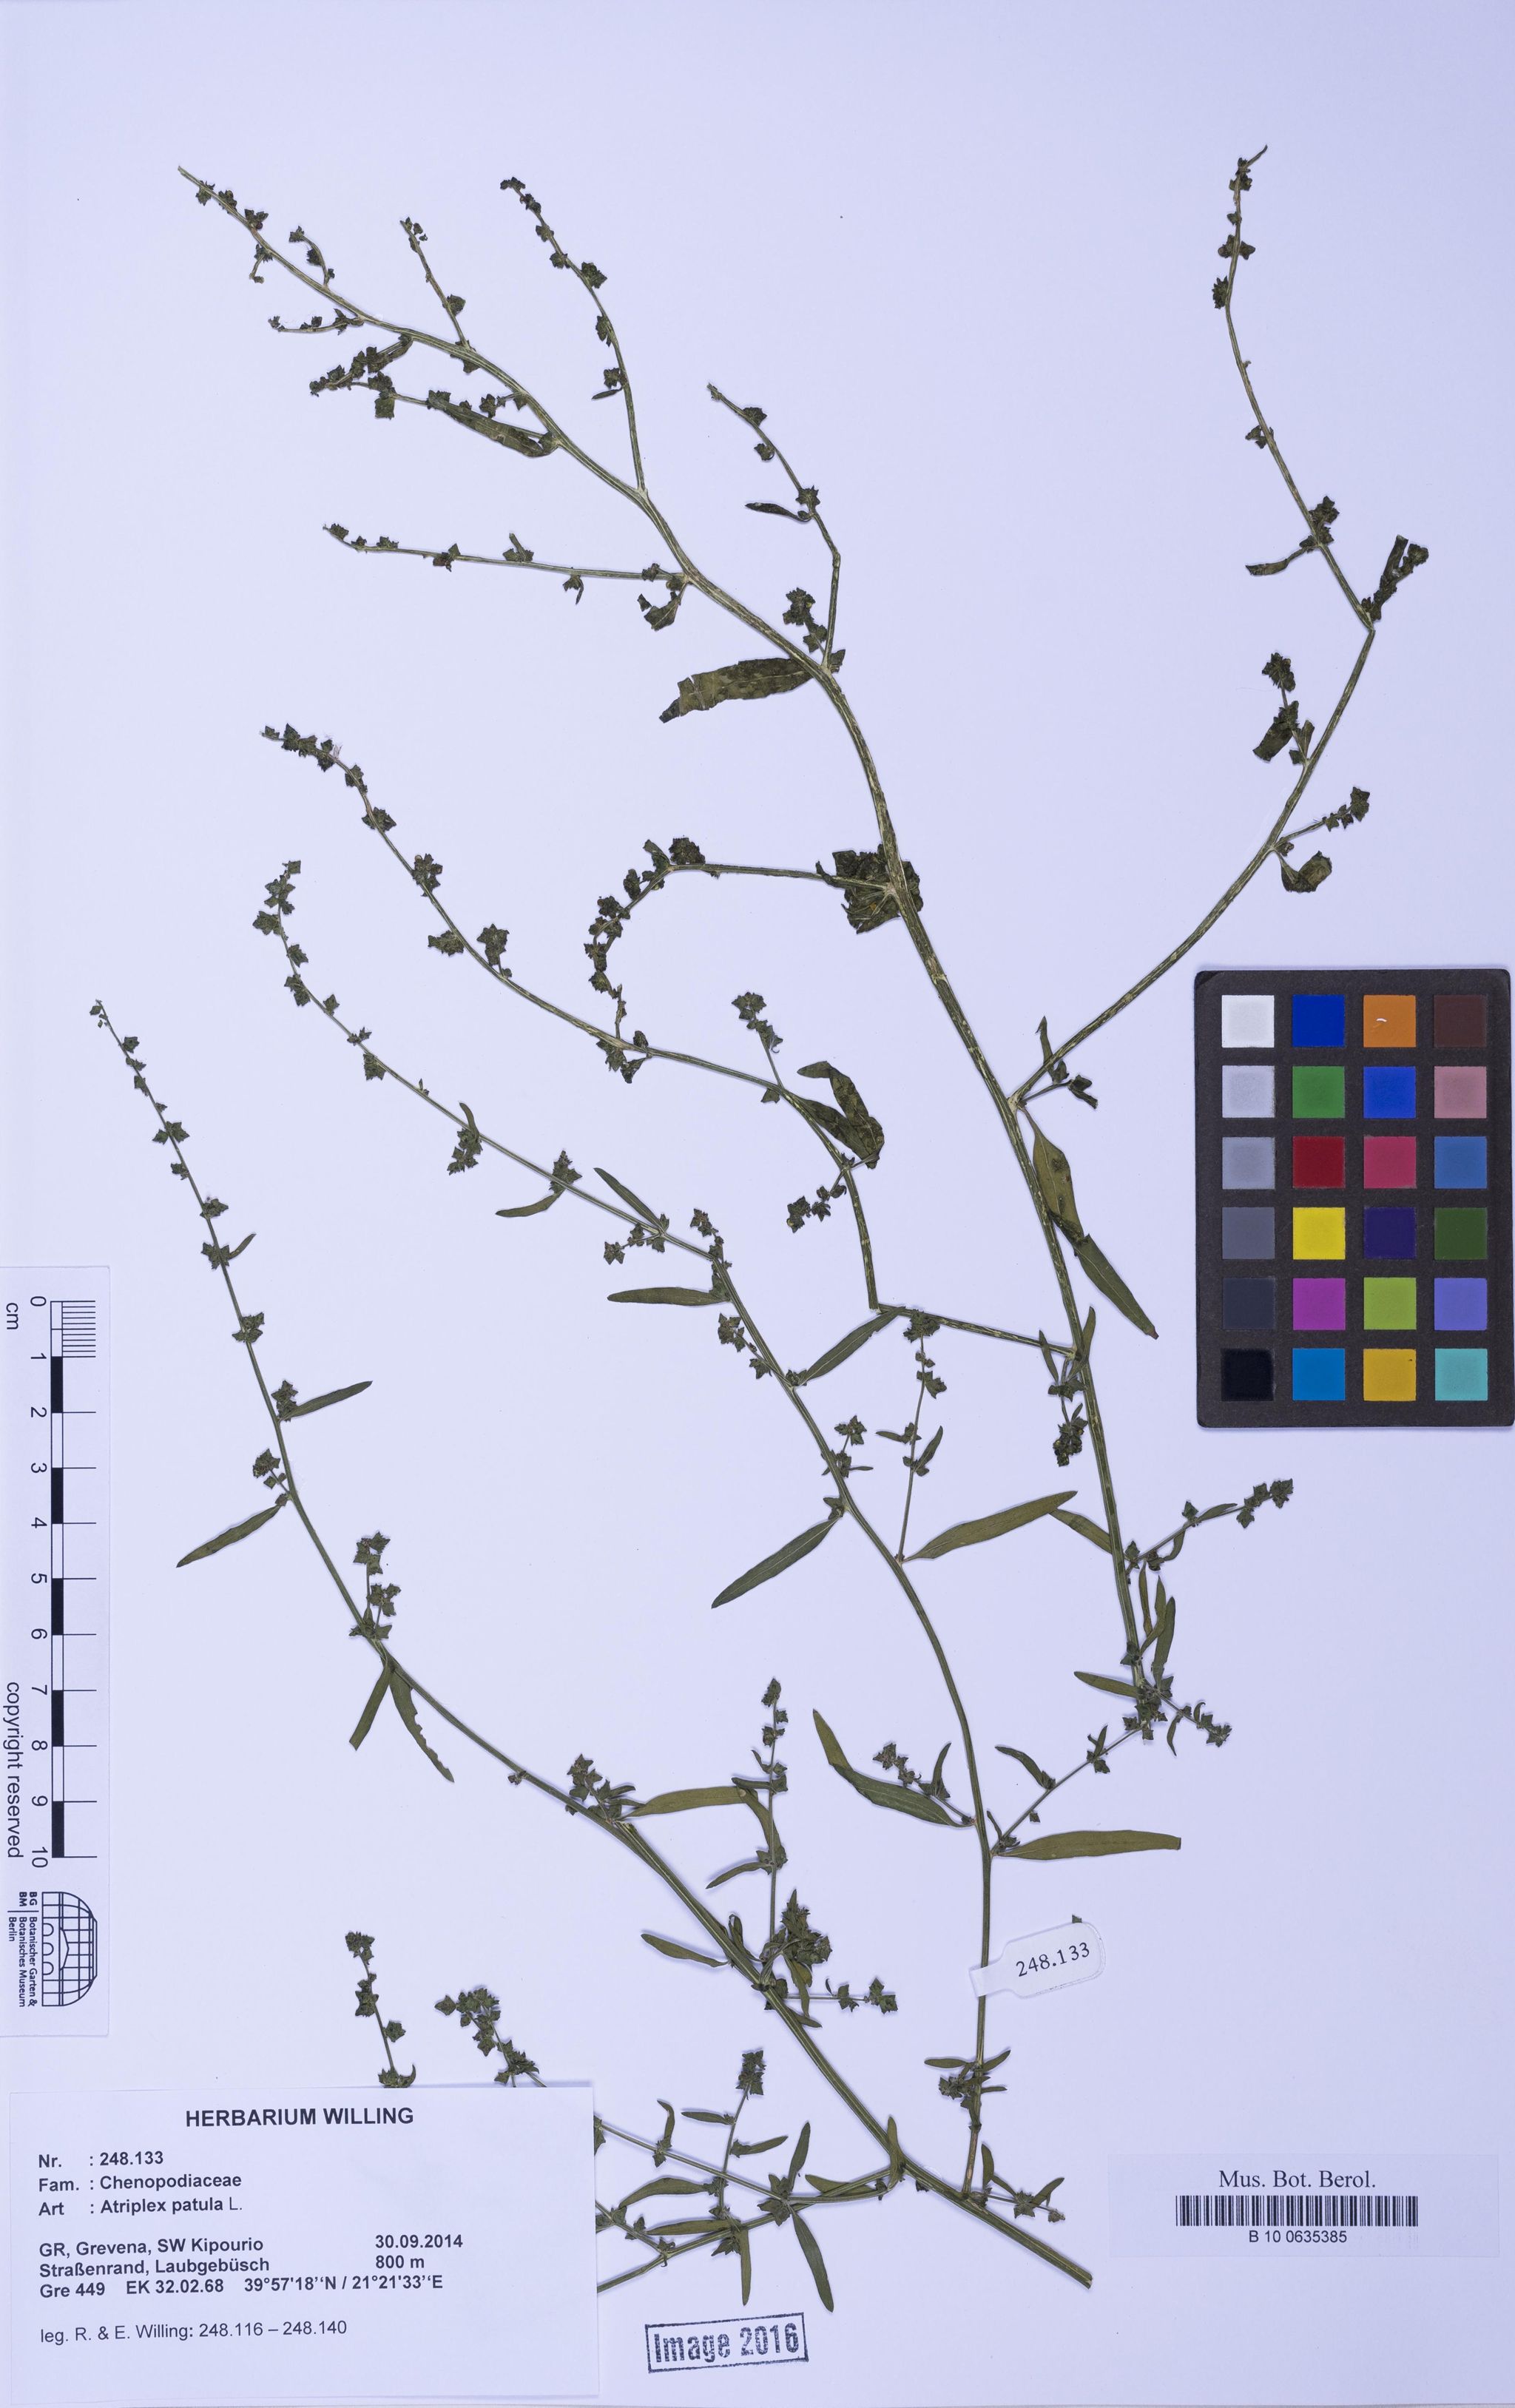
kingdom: Plantae
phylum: Tracheophyta
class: Magnoliopsida
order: Caryophyllales
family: Amaranthaceae
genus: Atriplex
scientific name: Atriplex patula
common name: Common orache
